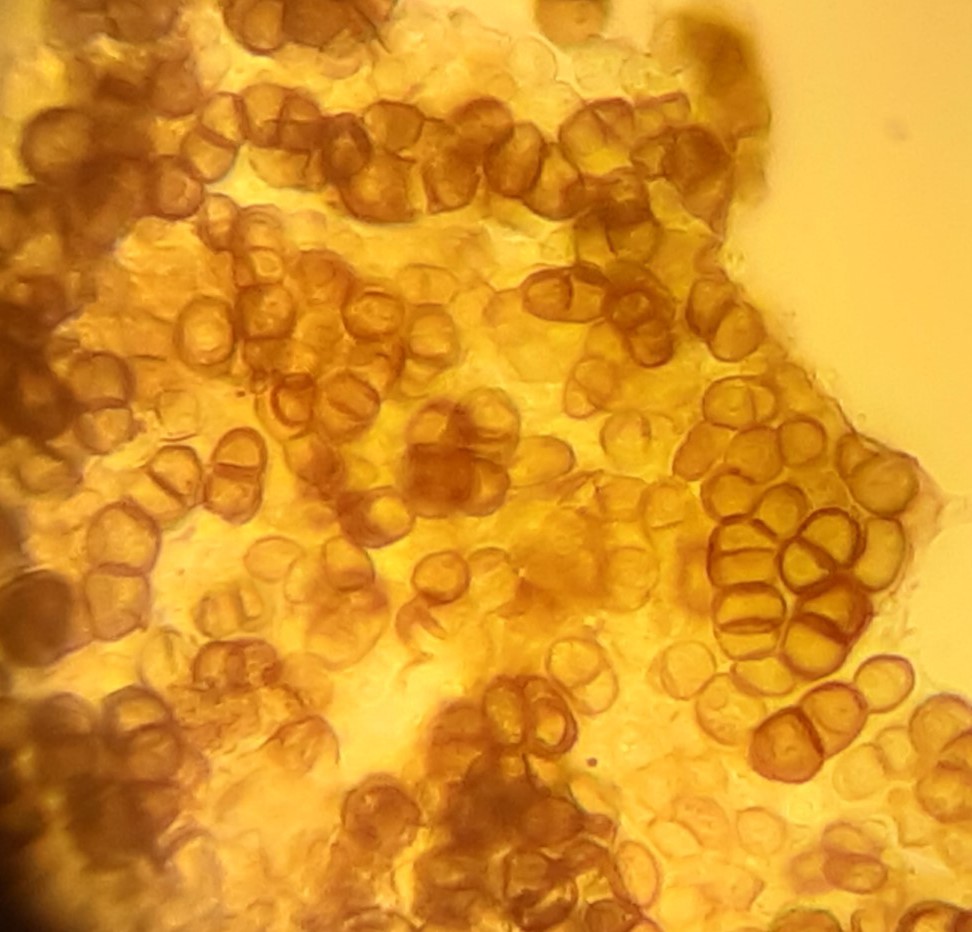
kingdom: Fungi
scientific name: Fungi
